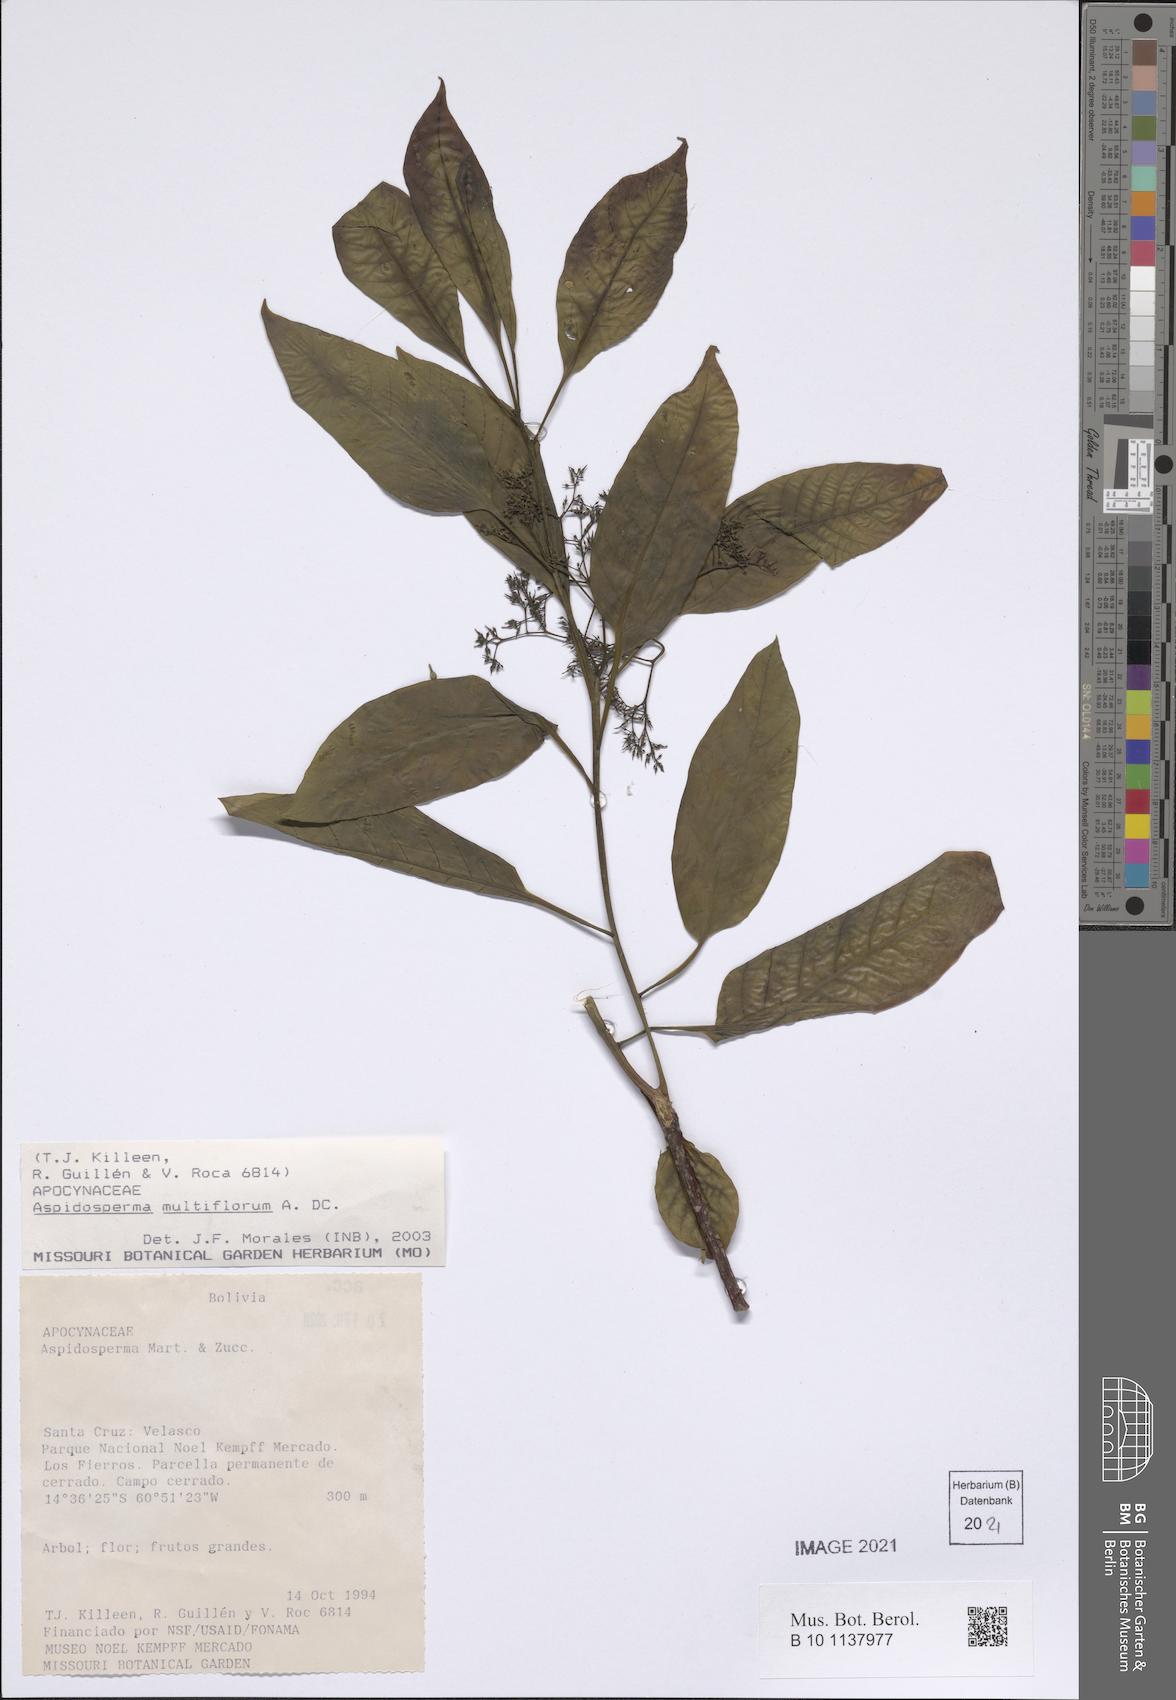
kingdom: Plantae
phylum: Tracheophyta
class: Magnoliopsida
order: Gentianales
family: Apocynaceae
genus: Aspidosperma
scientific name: Aspidosperma multiflorum
